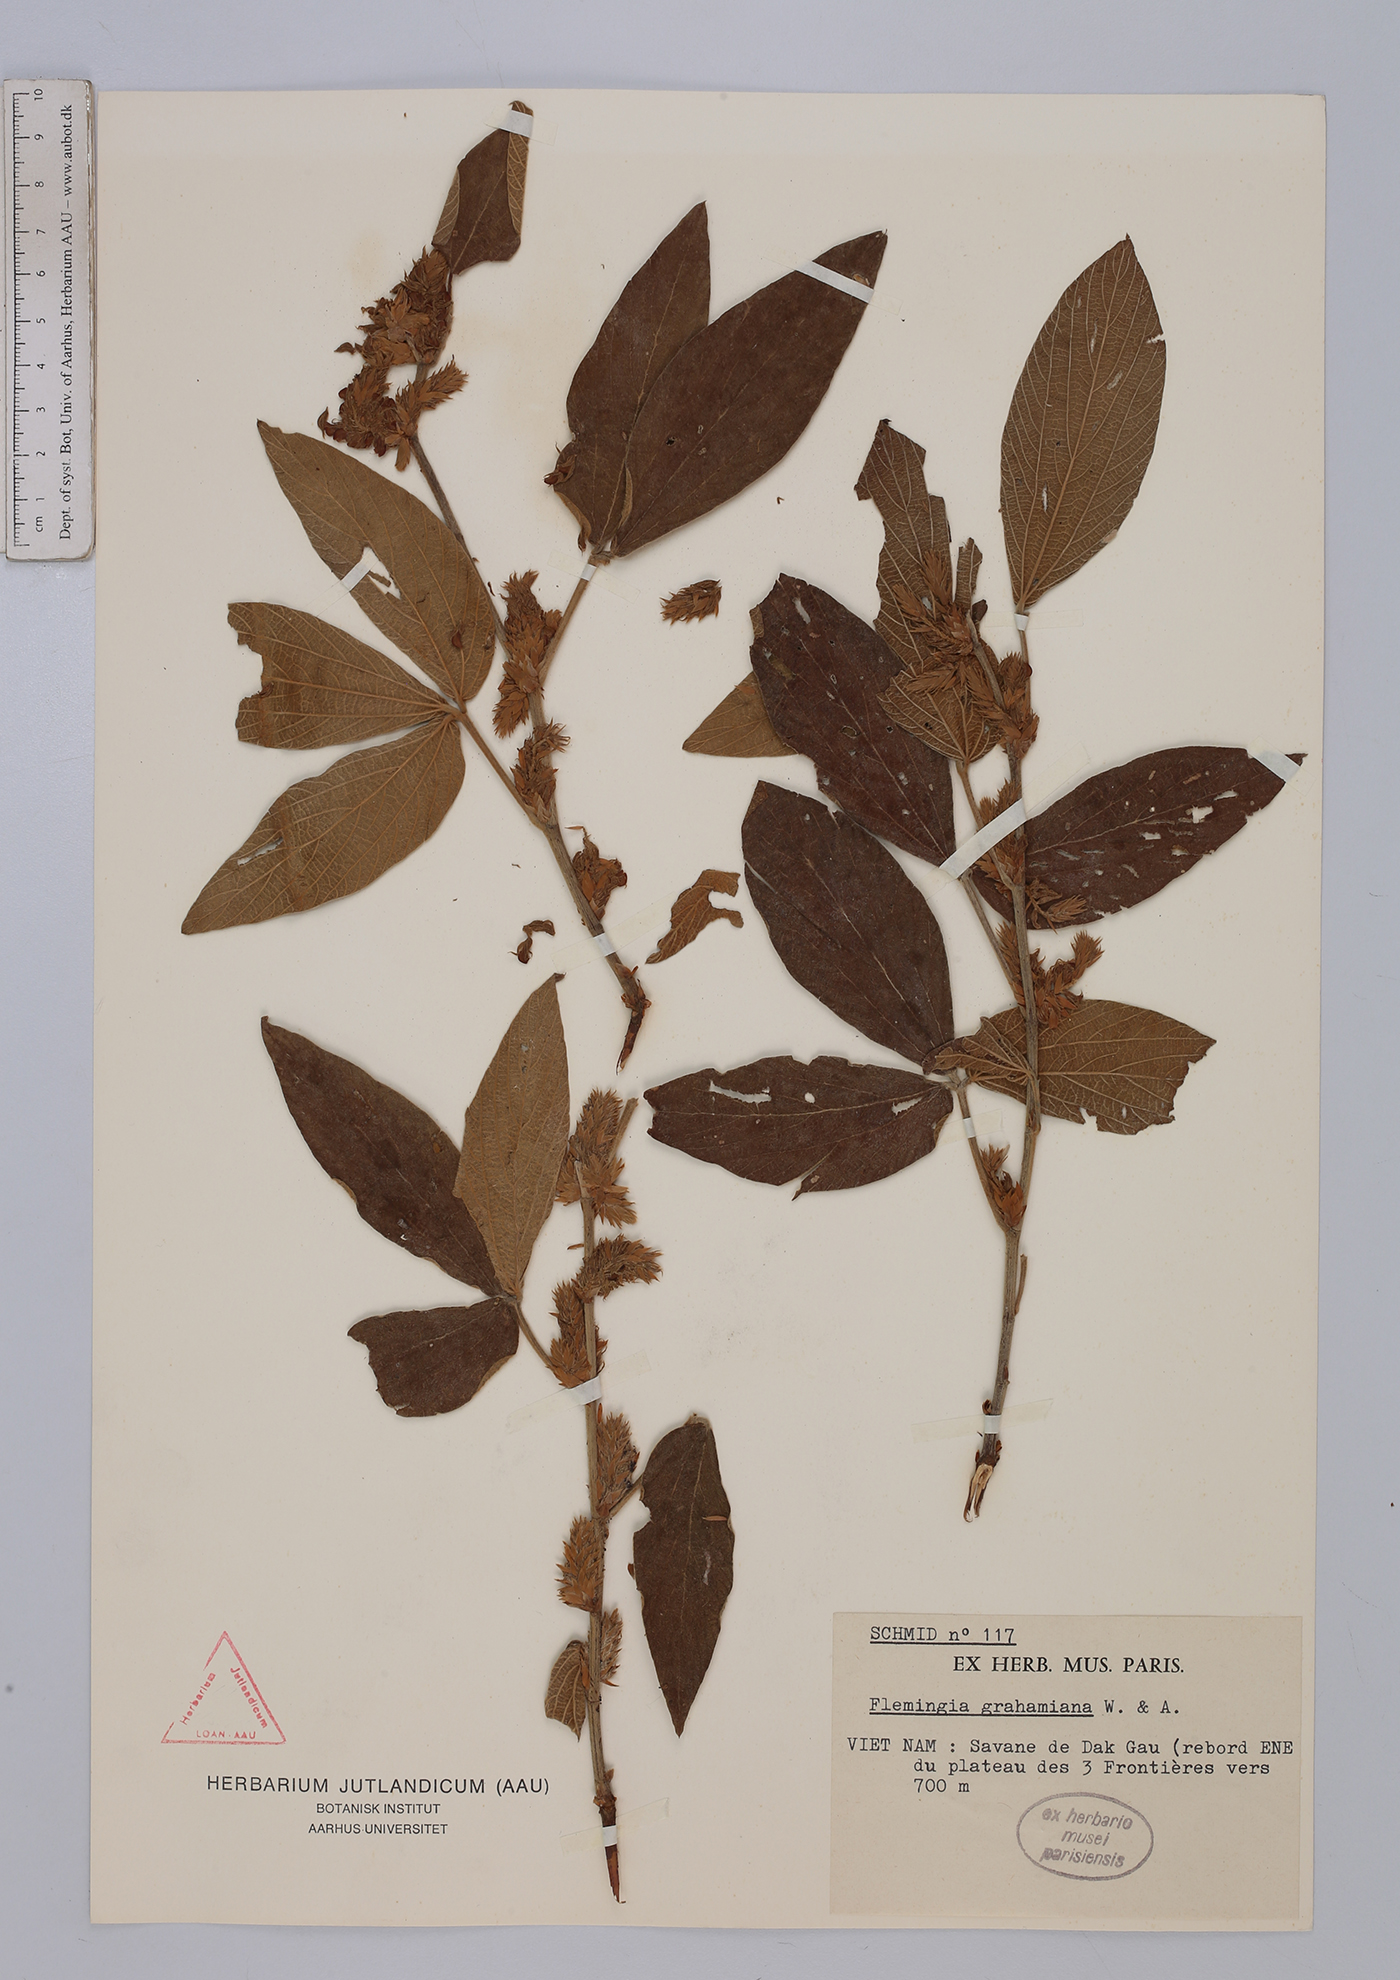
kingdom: Plantae
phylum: Tracheophyta
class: Magnoliopsida
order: Fabales
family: Fabaceae
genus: Flemingia
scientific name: Flemingia grahamiana
